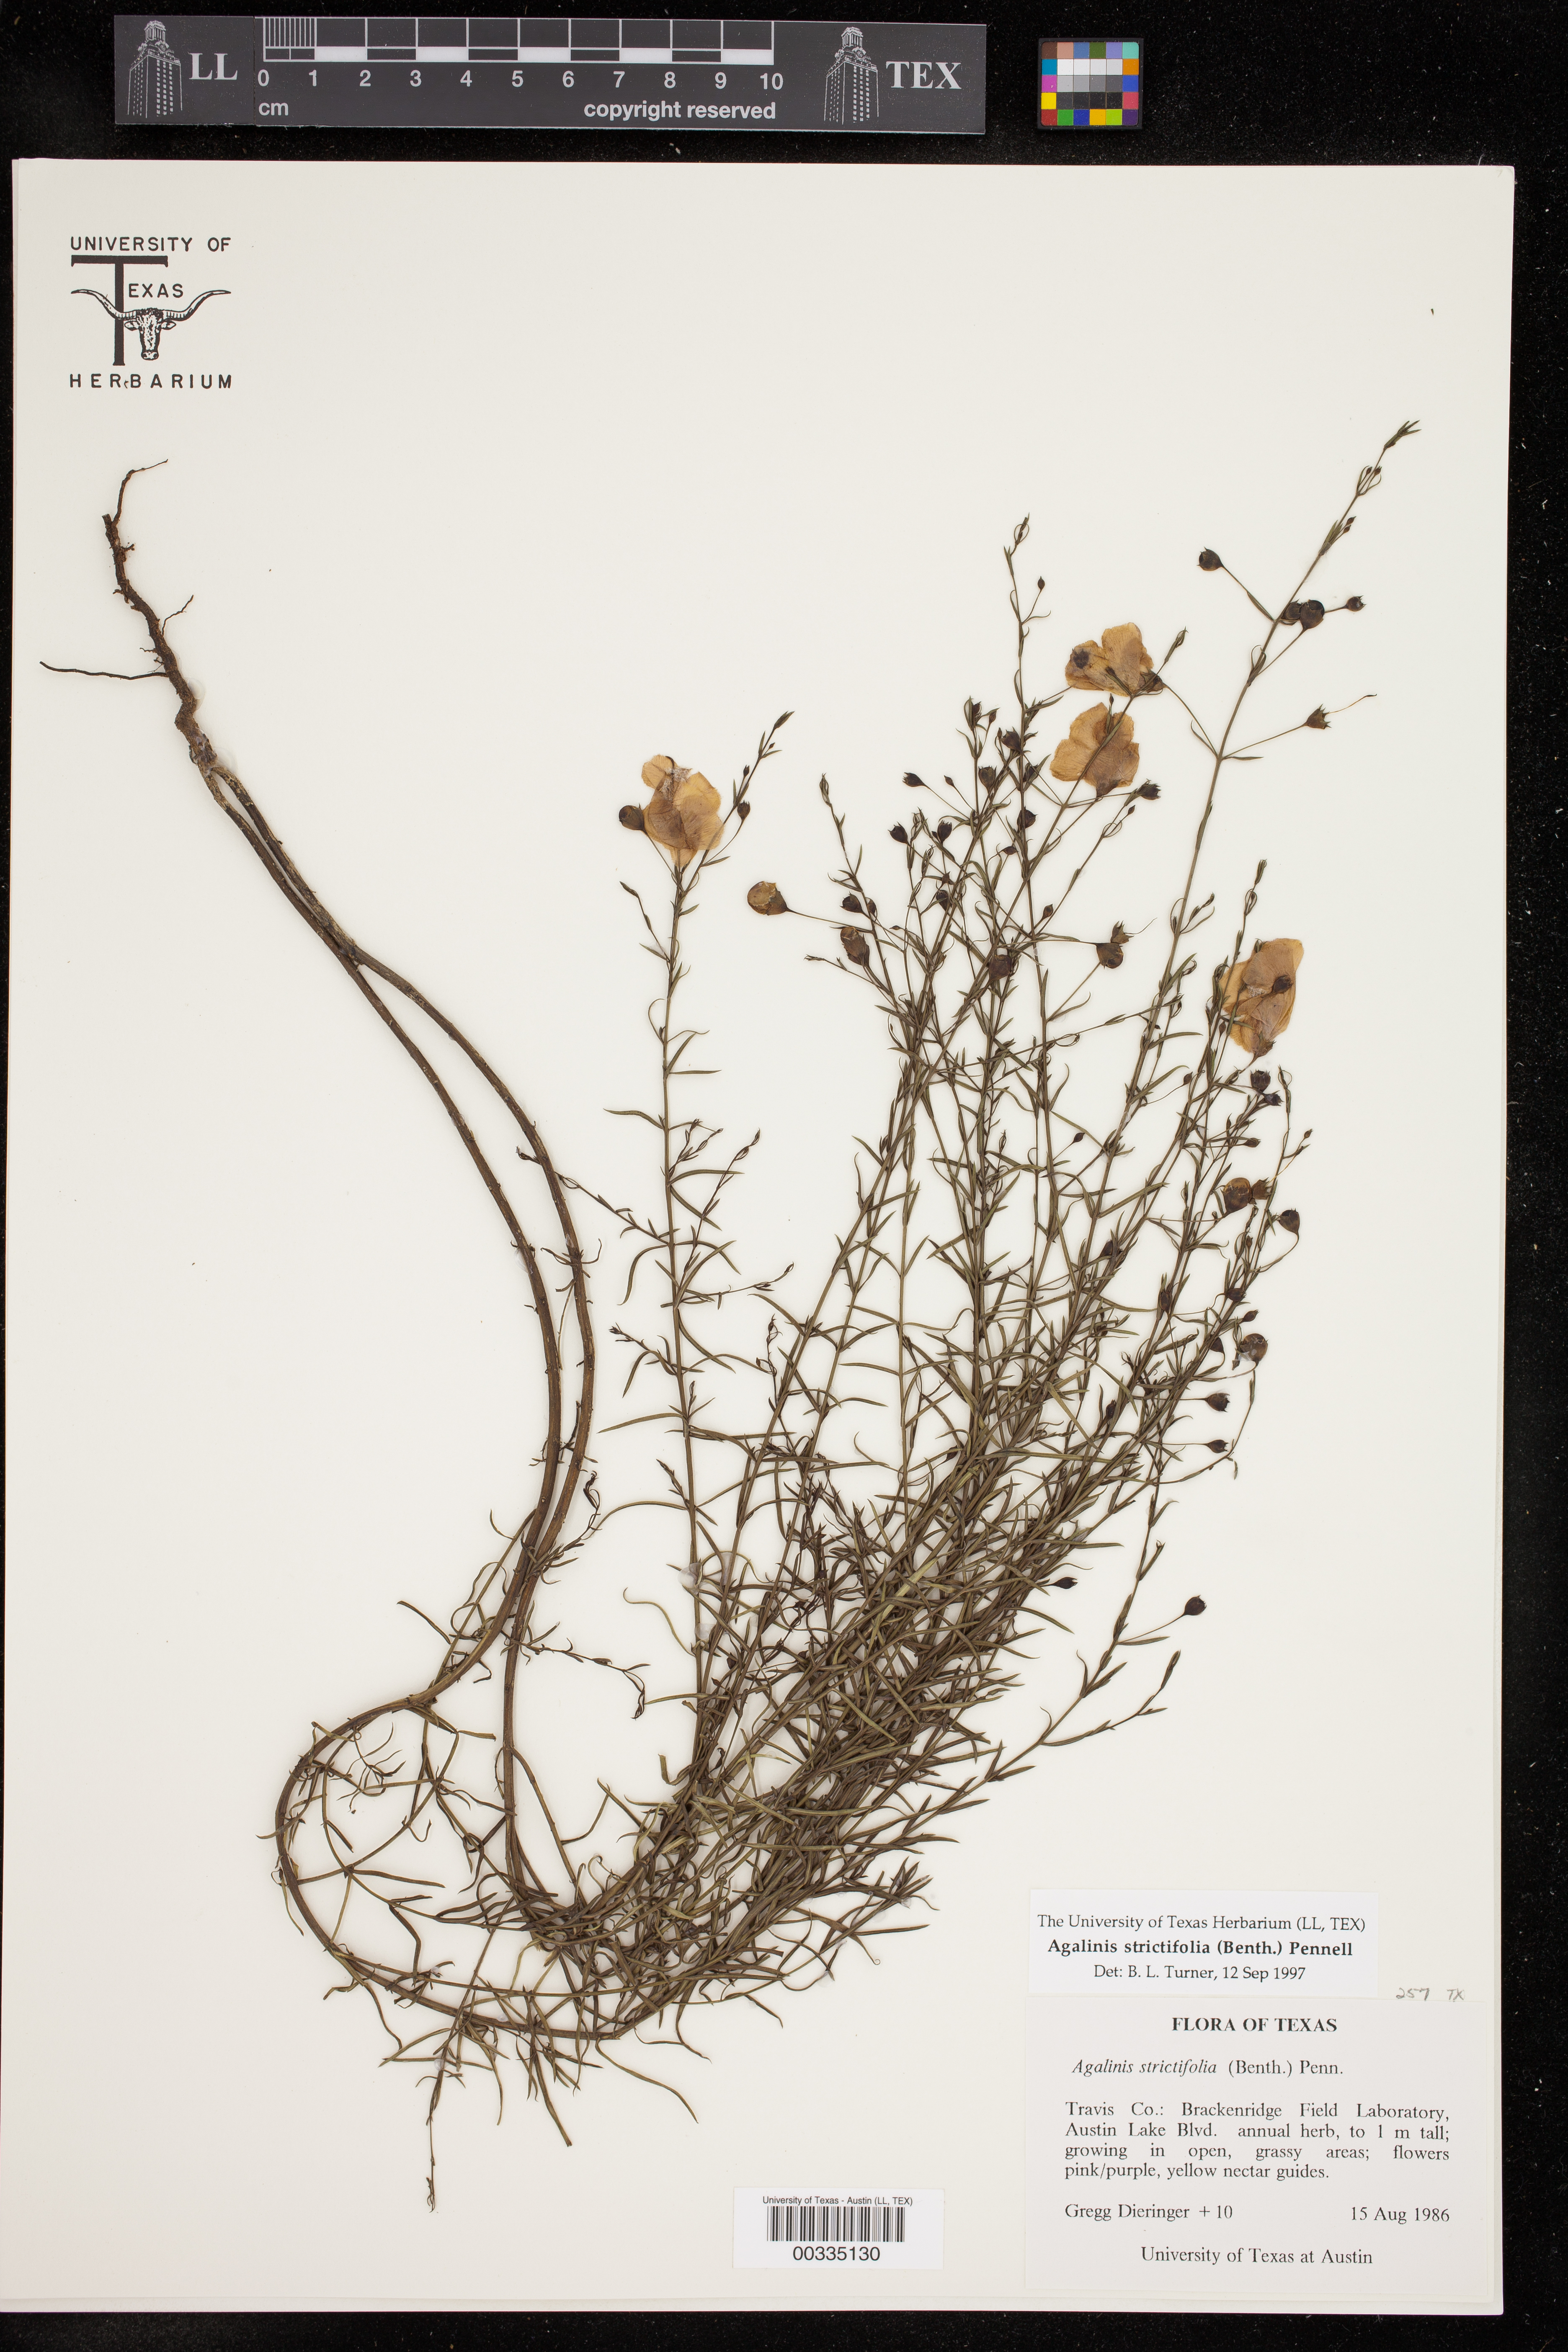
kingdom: Plantae
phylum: Tracheophyta
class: Magnoliopsida
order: Lamiales
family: Orobanchaceae
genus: Agalinis
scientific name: Agalinis strictifolia
